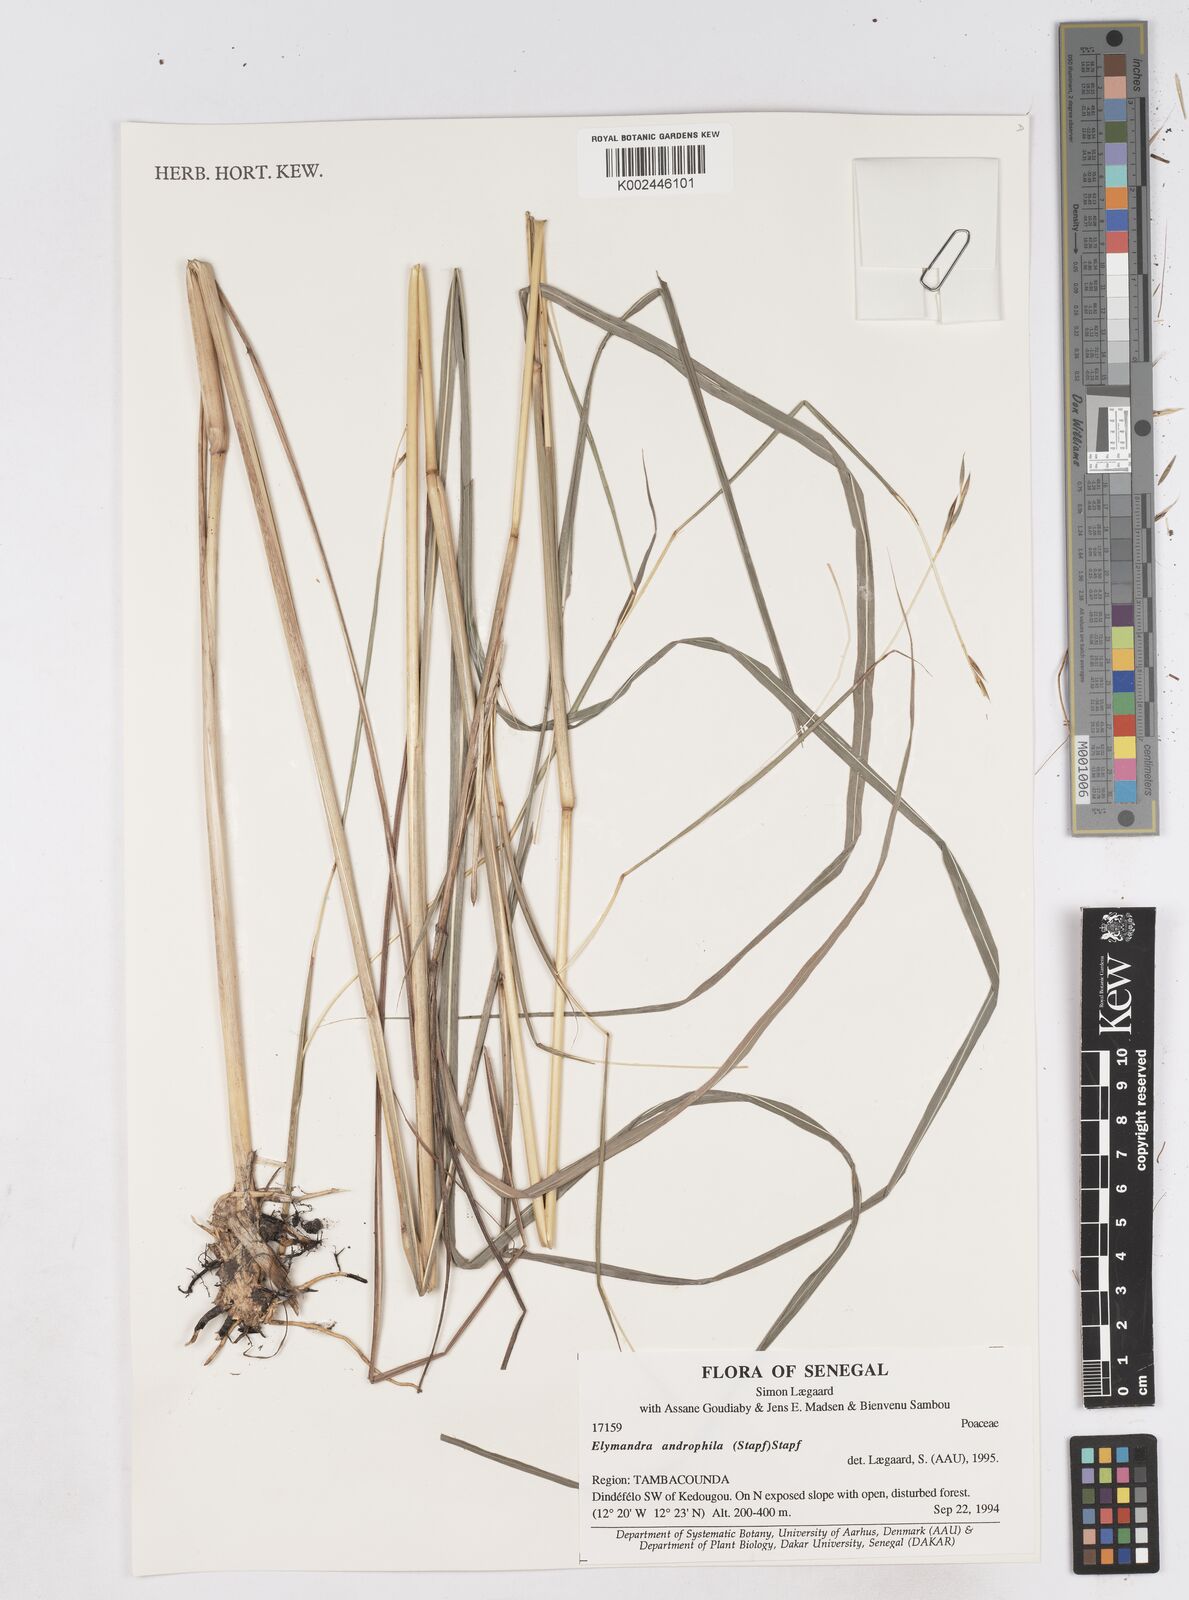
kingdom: Plantae
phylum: Tracheophyta
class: Liliopsida
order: Poales
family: Poaceae
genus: Elymandra
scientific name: Elymandra androphila
